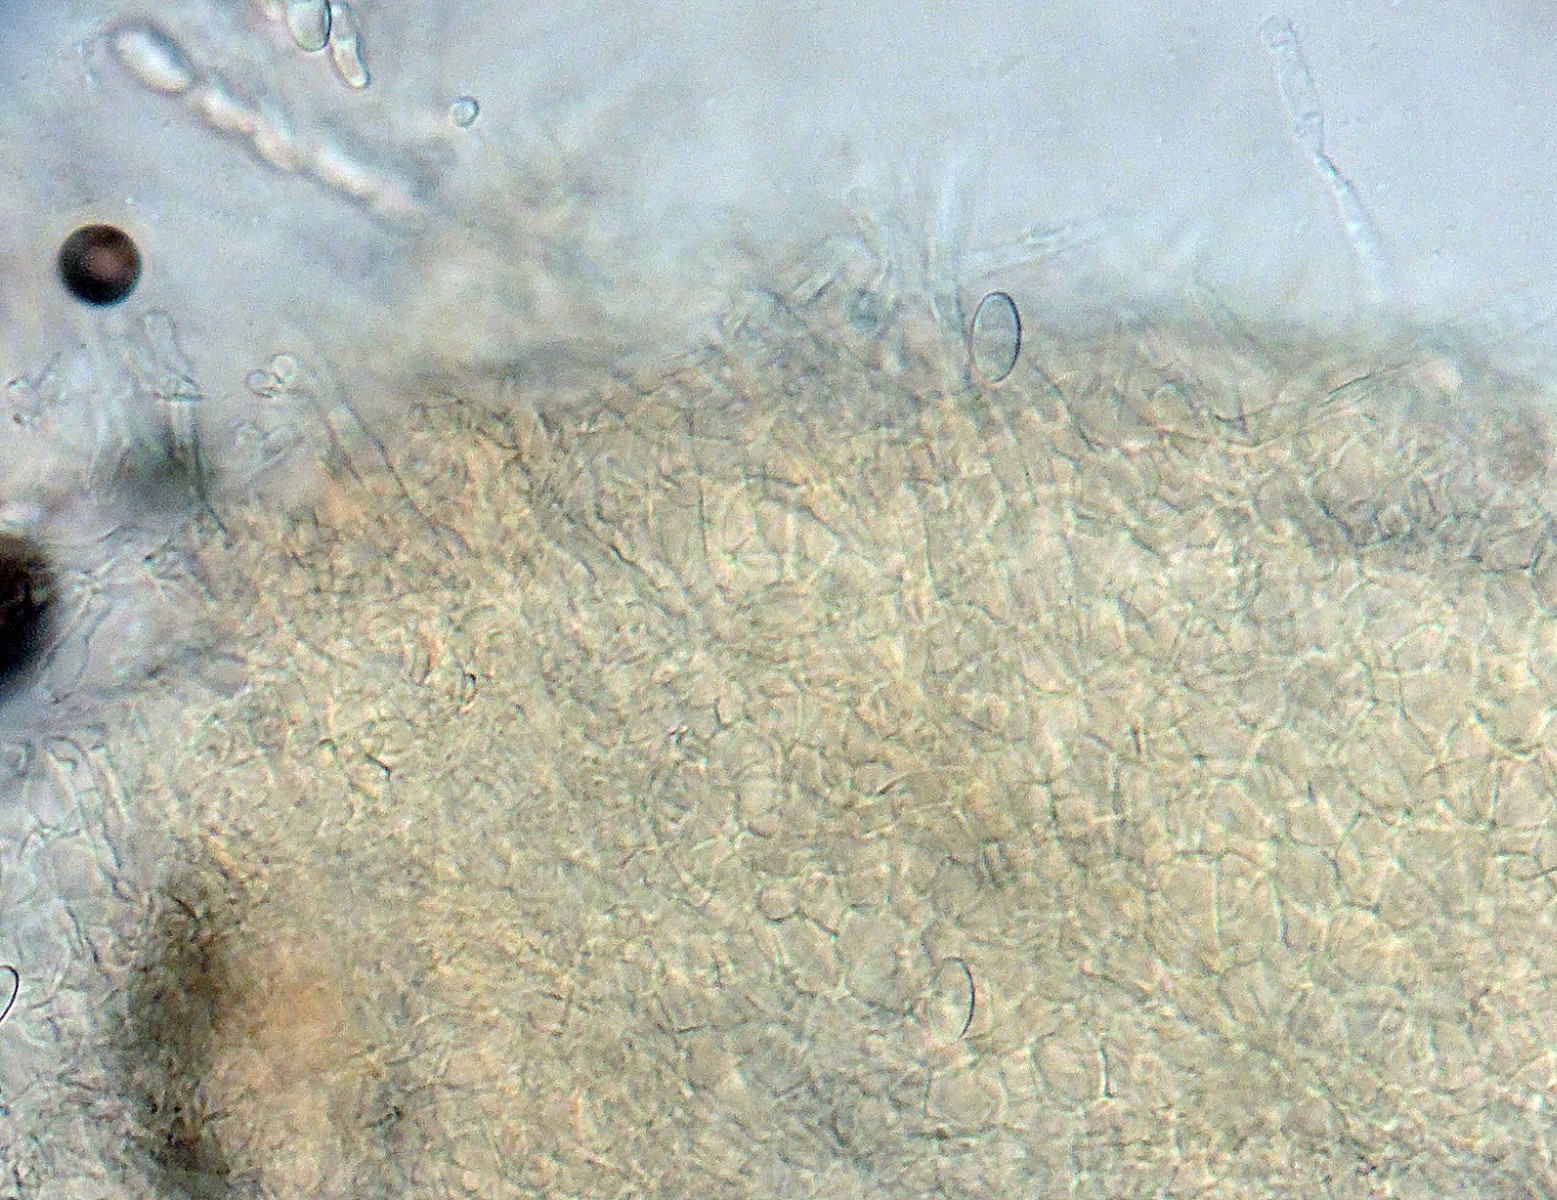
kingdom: Fungi
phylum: Ascomycota
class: Sordariomycetes
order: Hypocreales
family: Nectriaceae
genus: Hydropisphaera
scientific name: Hydropisphaera peziza
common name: skålformet gyldenkerne
